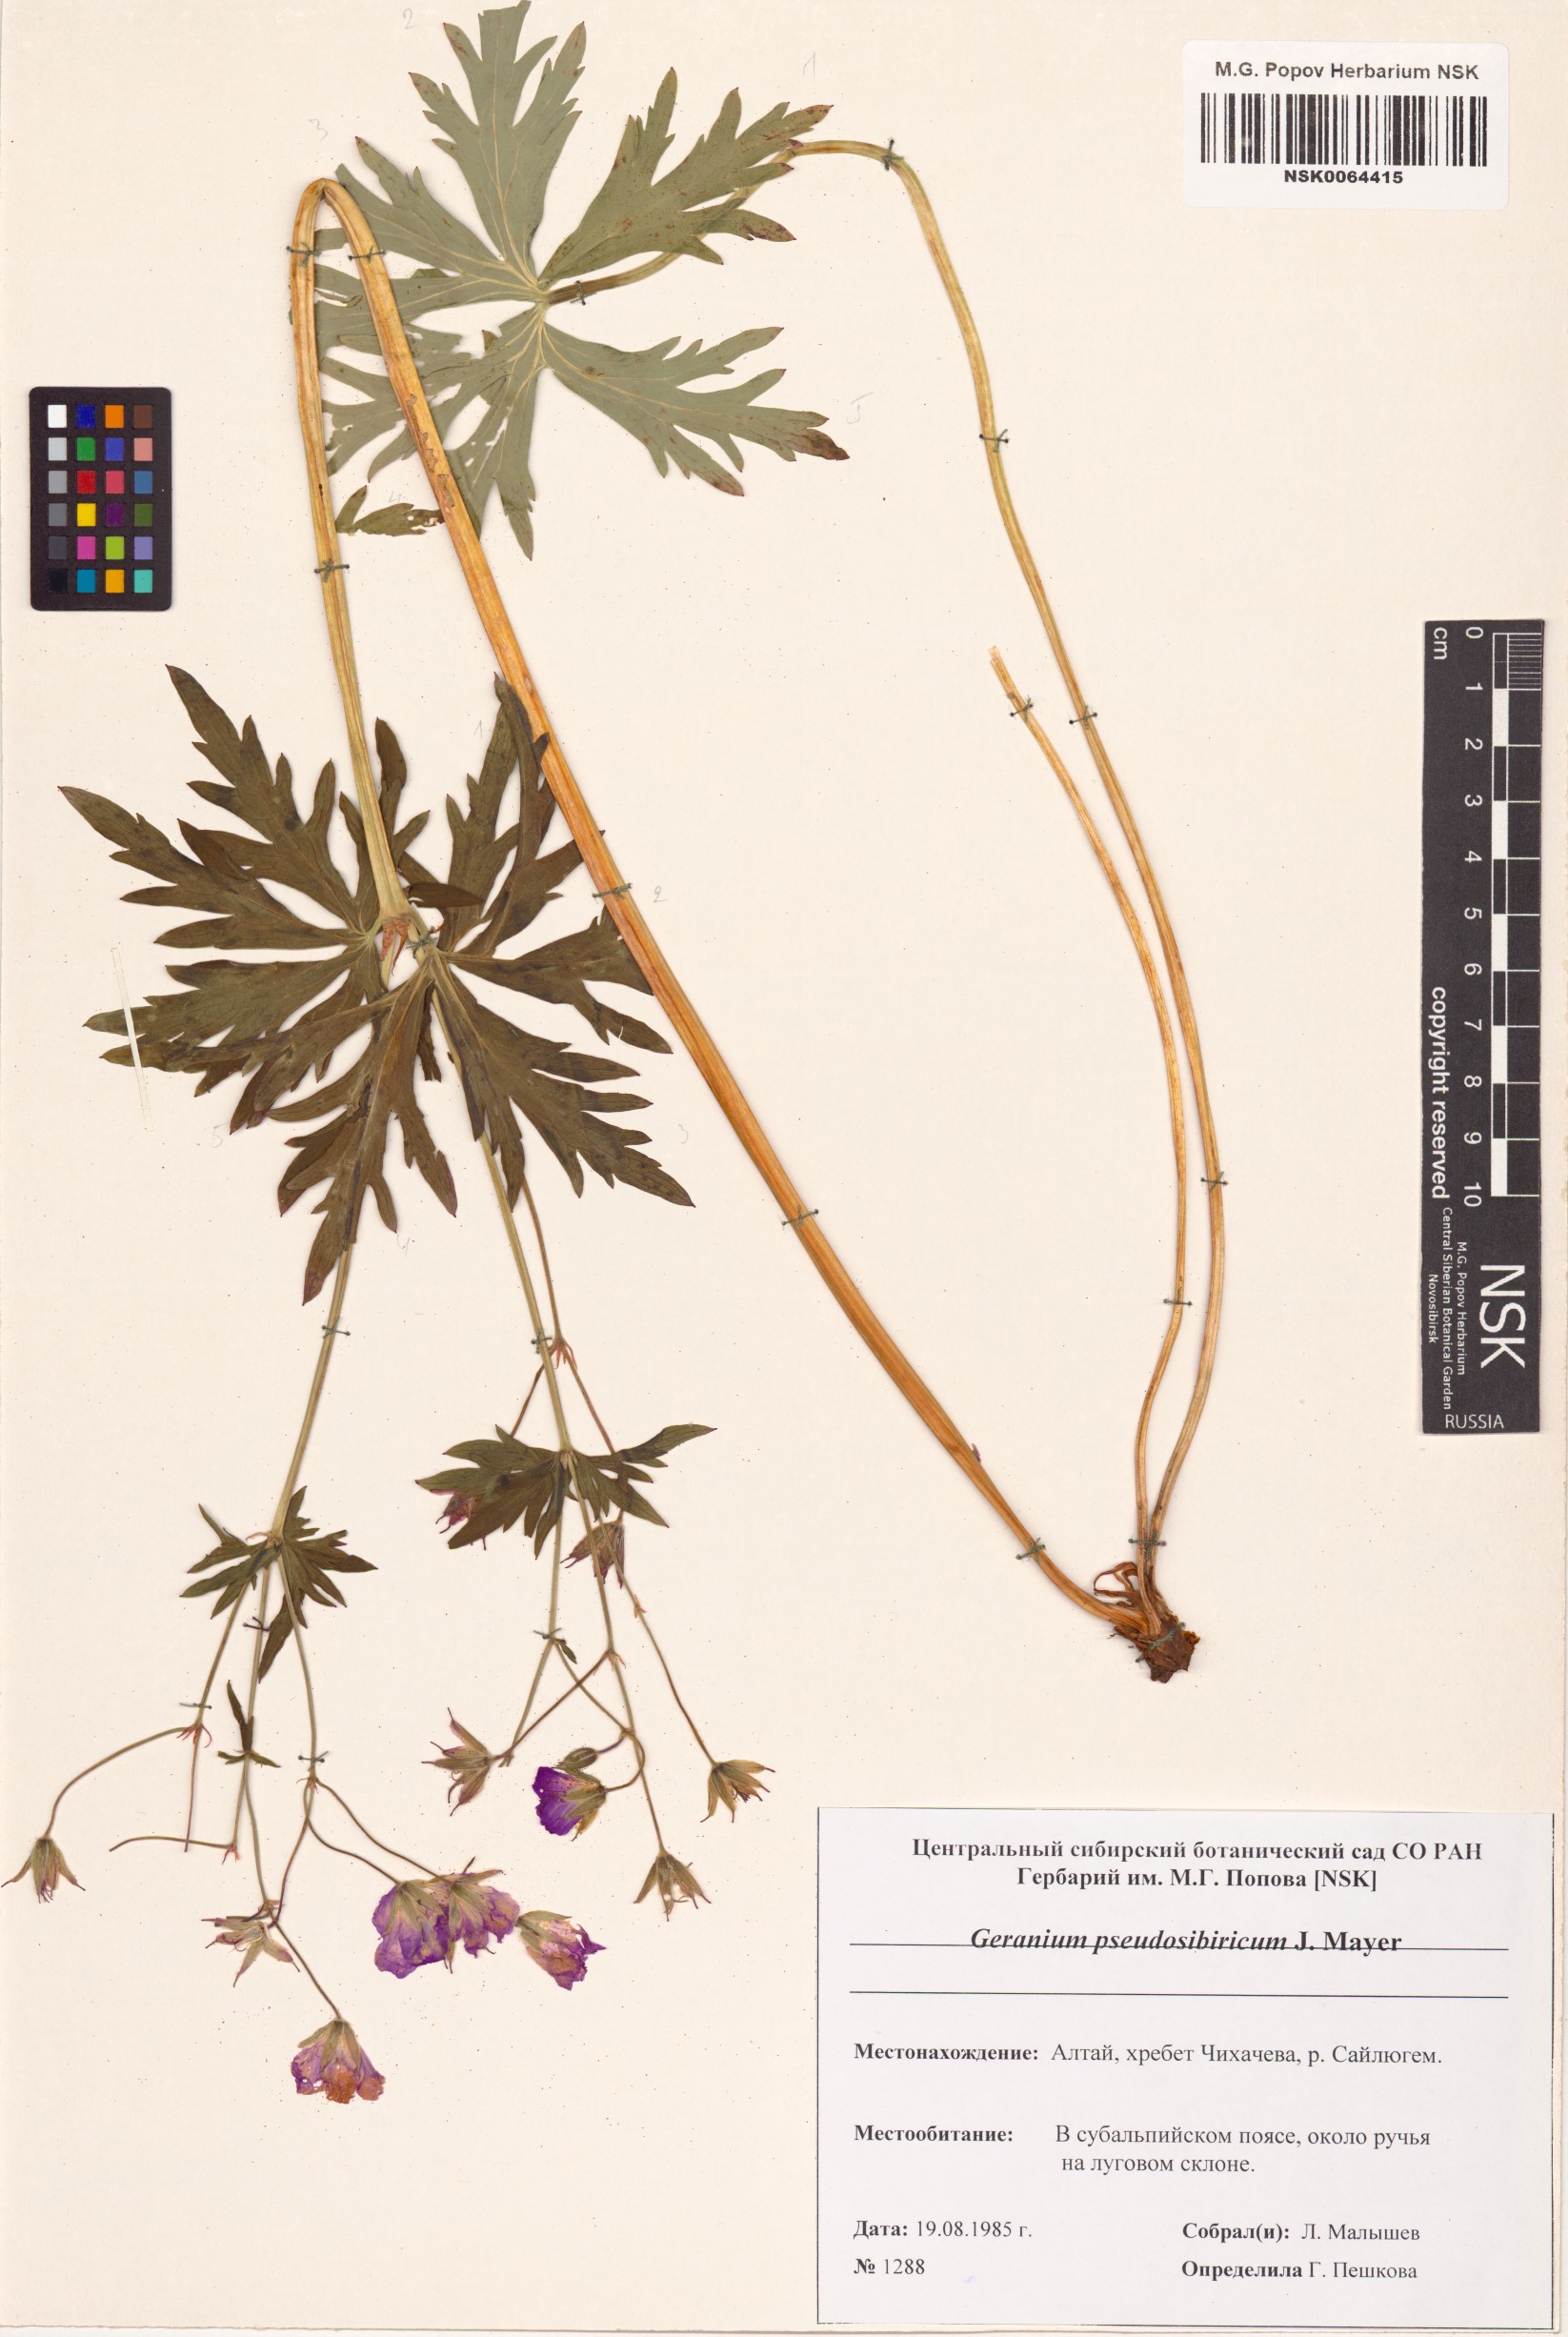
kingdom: Plantae
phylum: Tracheophyta
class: Magnoliopsida
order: Geraniales
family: Geraniaceae
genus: Geranium
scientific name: Geranium pseudosibiricum
